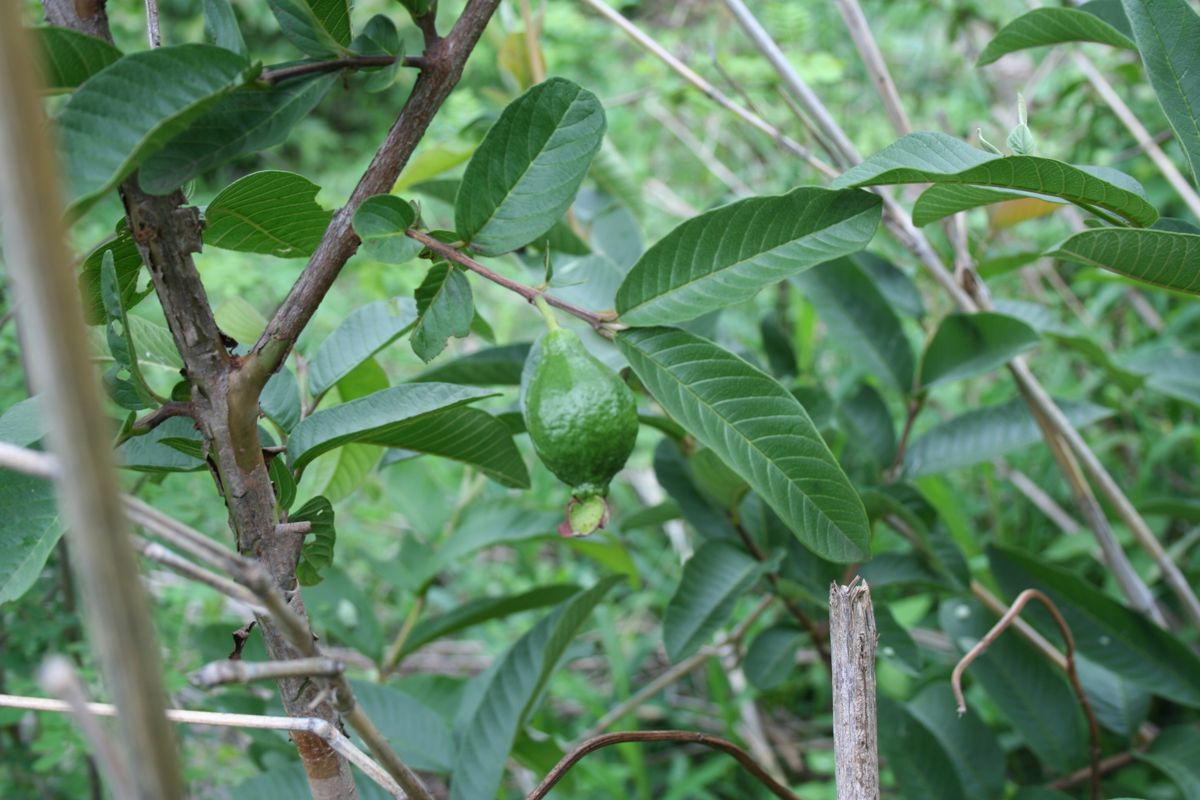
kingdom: Plantae
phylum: Tracheophyta
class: Magnoliopsida
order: Myrtales
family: Myrtaceae
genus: Psidium
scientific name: Psidium guajava
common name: Guava
